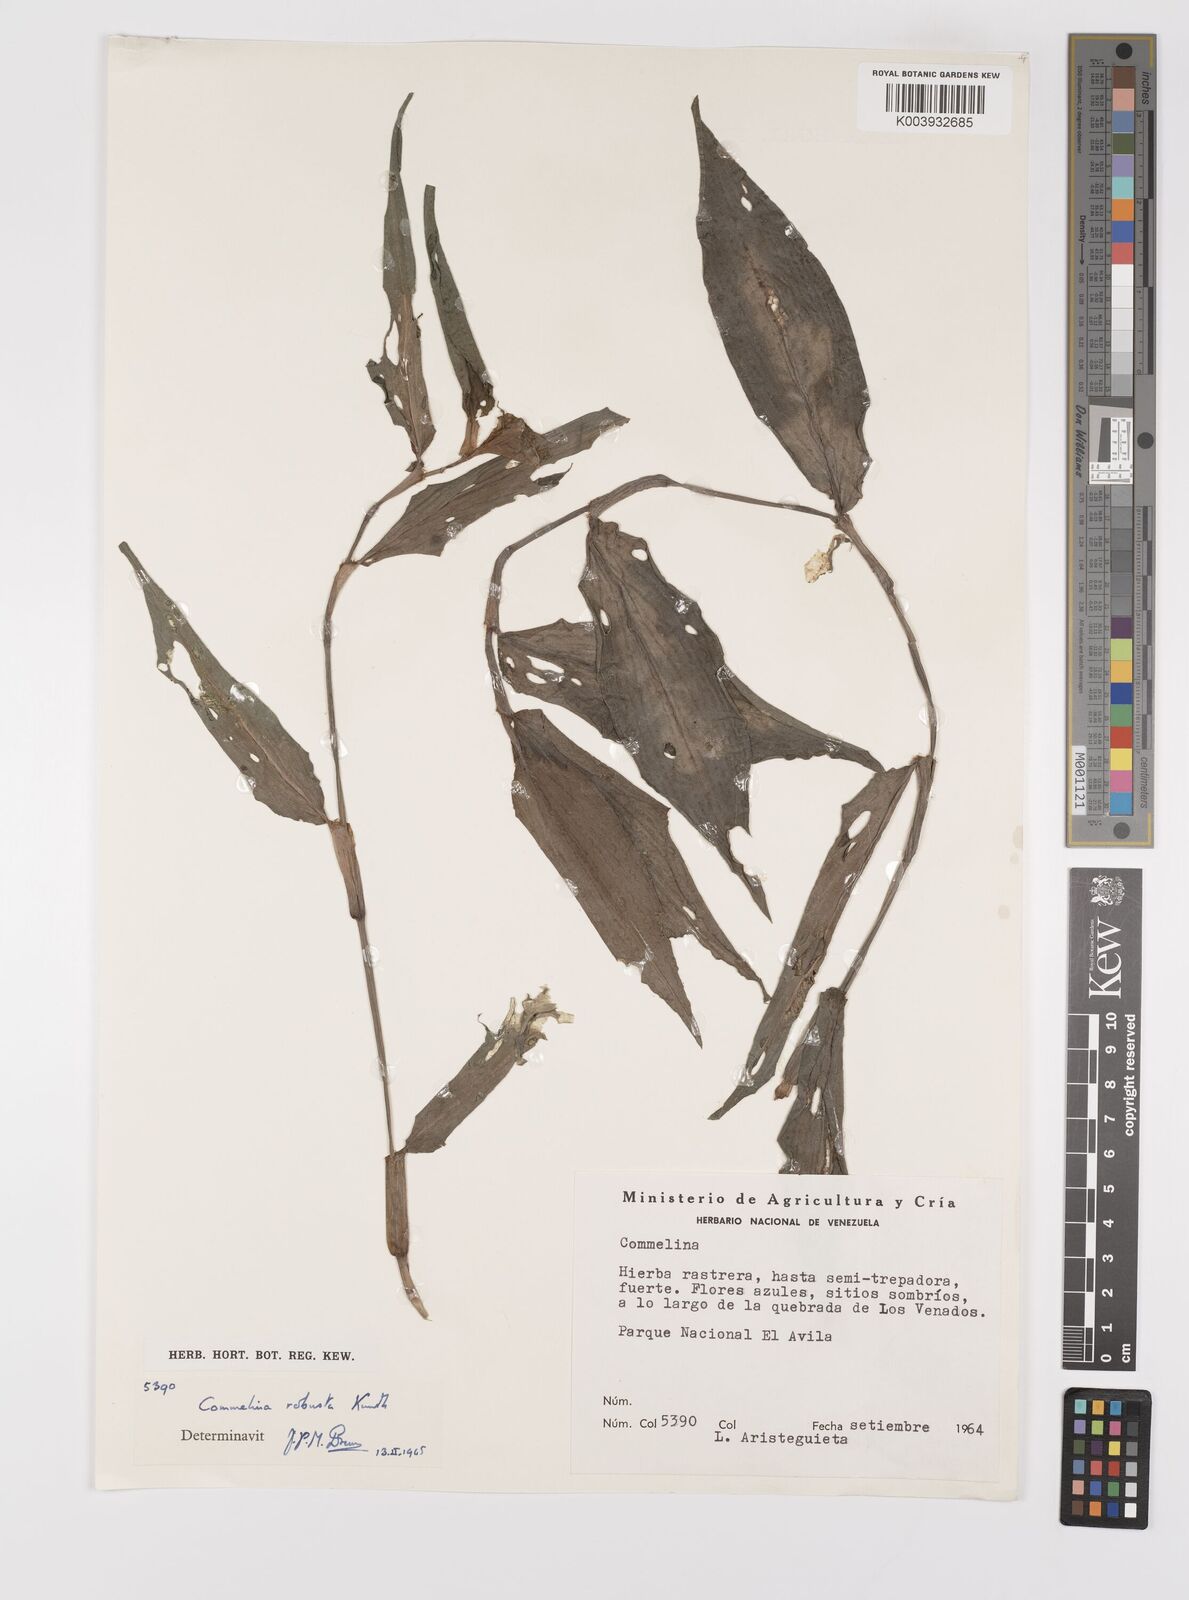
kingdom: Plantae
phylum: Tracheophyta
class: Liliopsida
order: Commelinales
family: Commelinaceae
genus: Commelina
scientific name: Commelina obliqua
